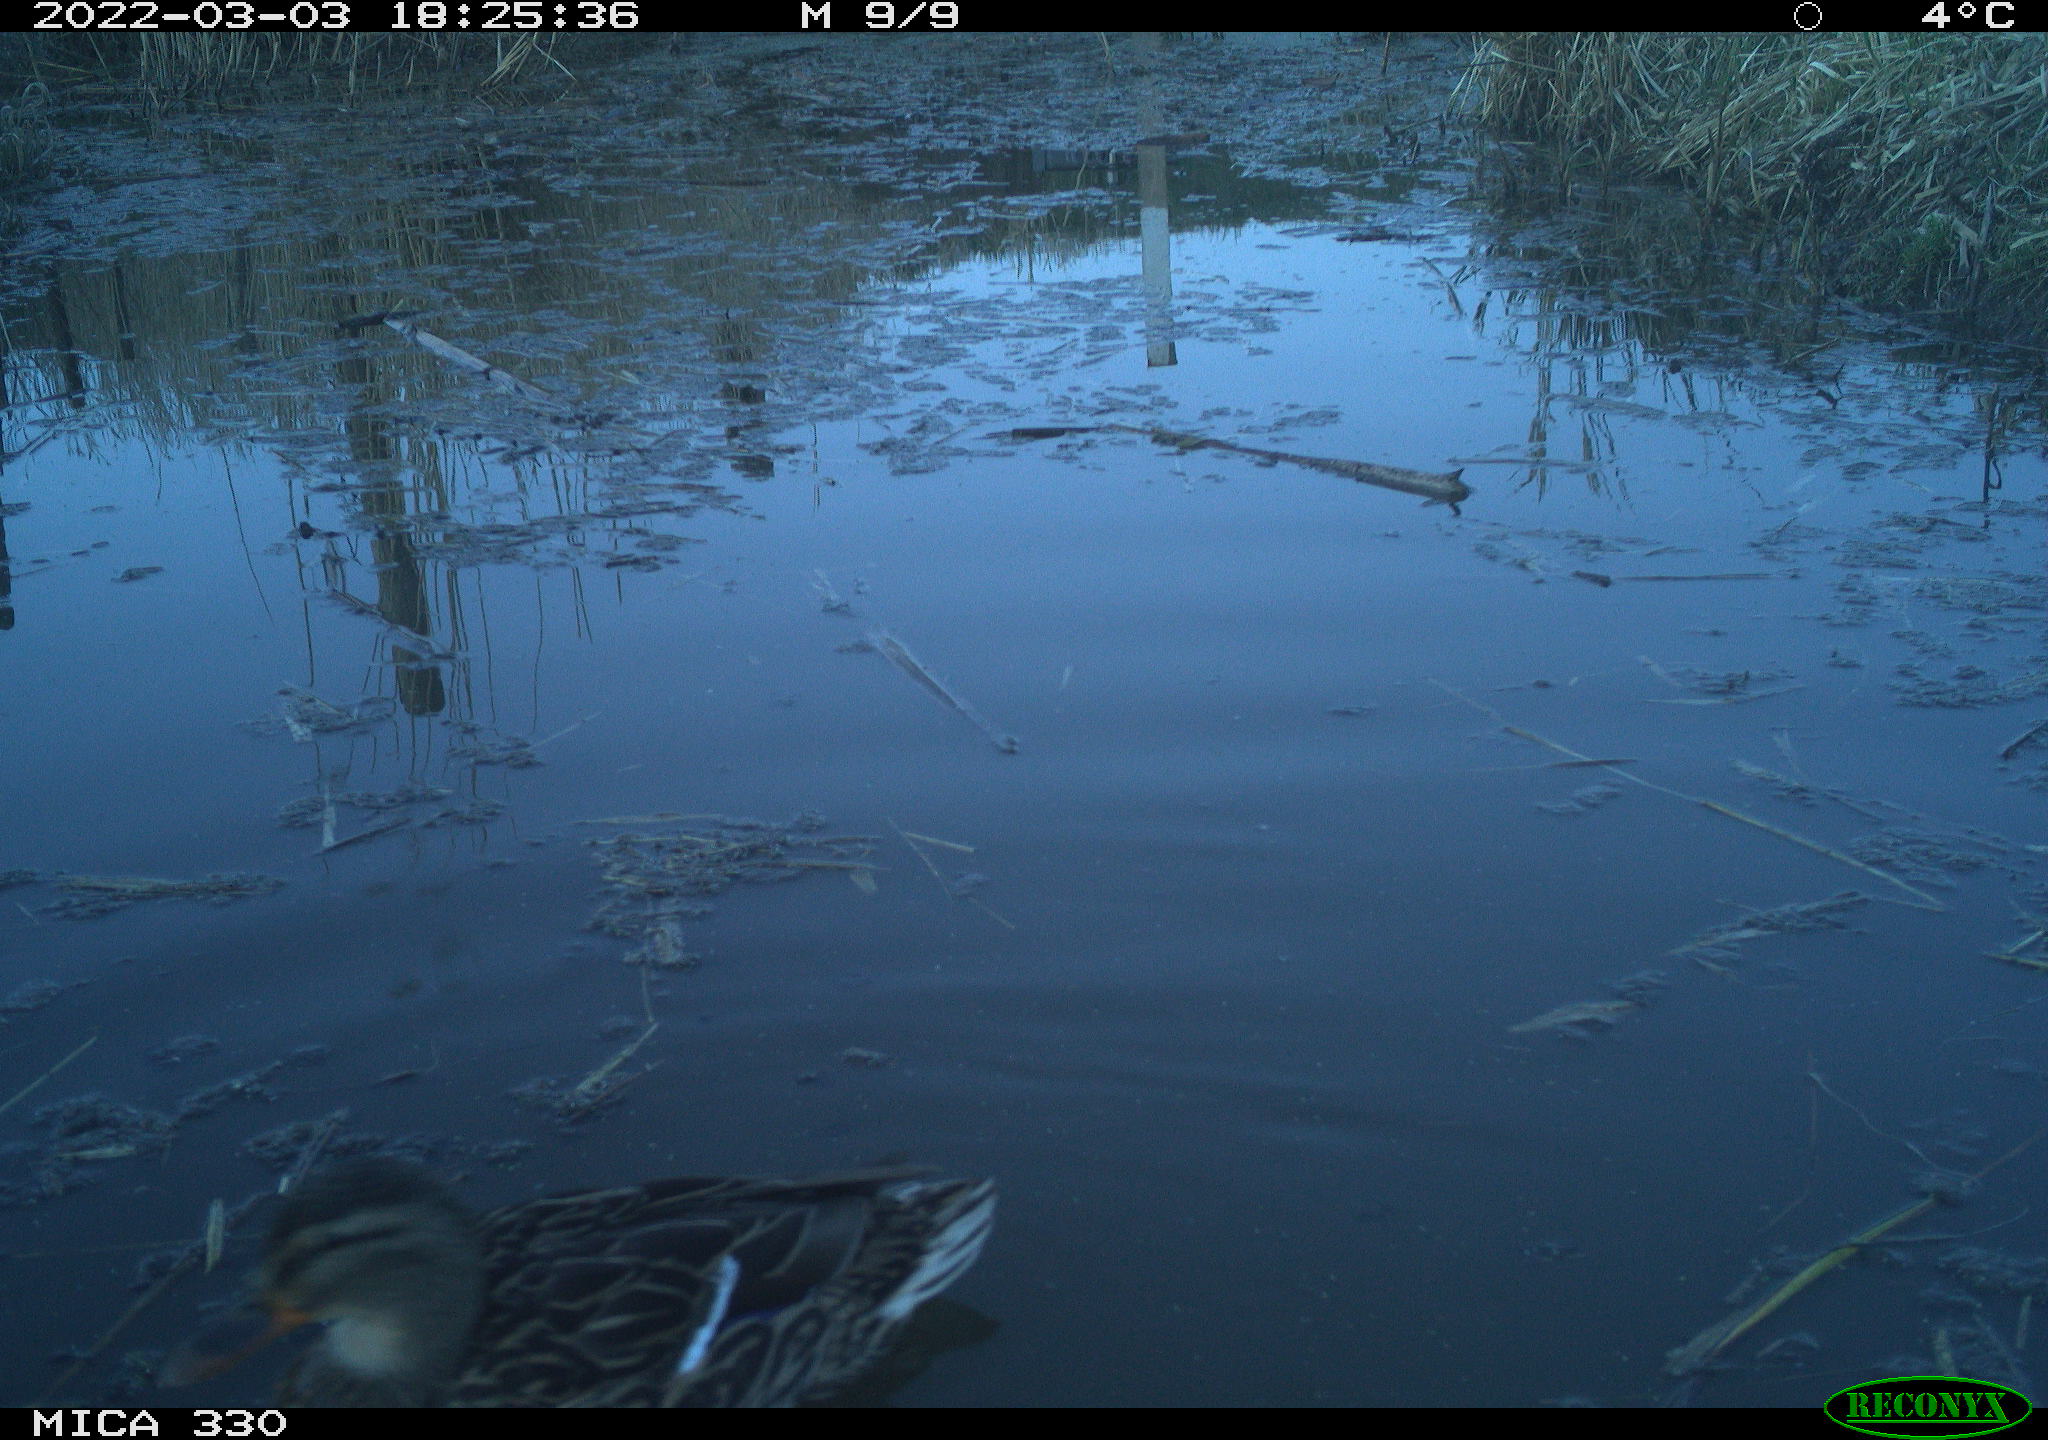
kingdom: Animalia
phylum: Chordata
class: Aves
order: Anseriformes
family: Anatidae
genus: Anas
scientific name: Anas platyrhynchos
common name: Mallard
